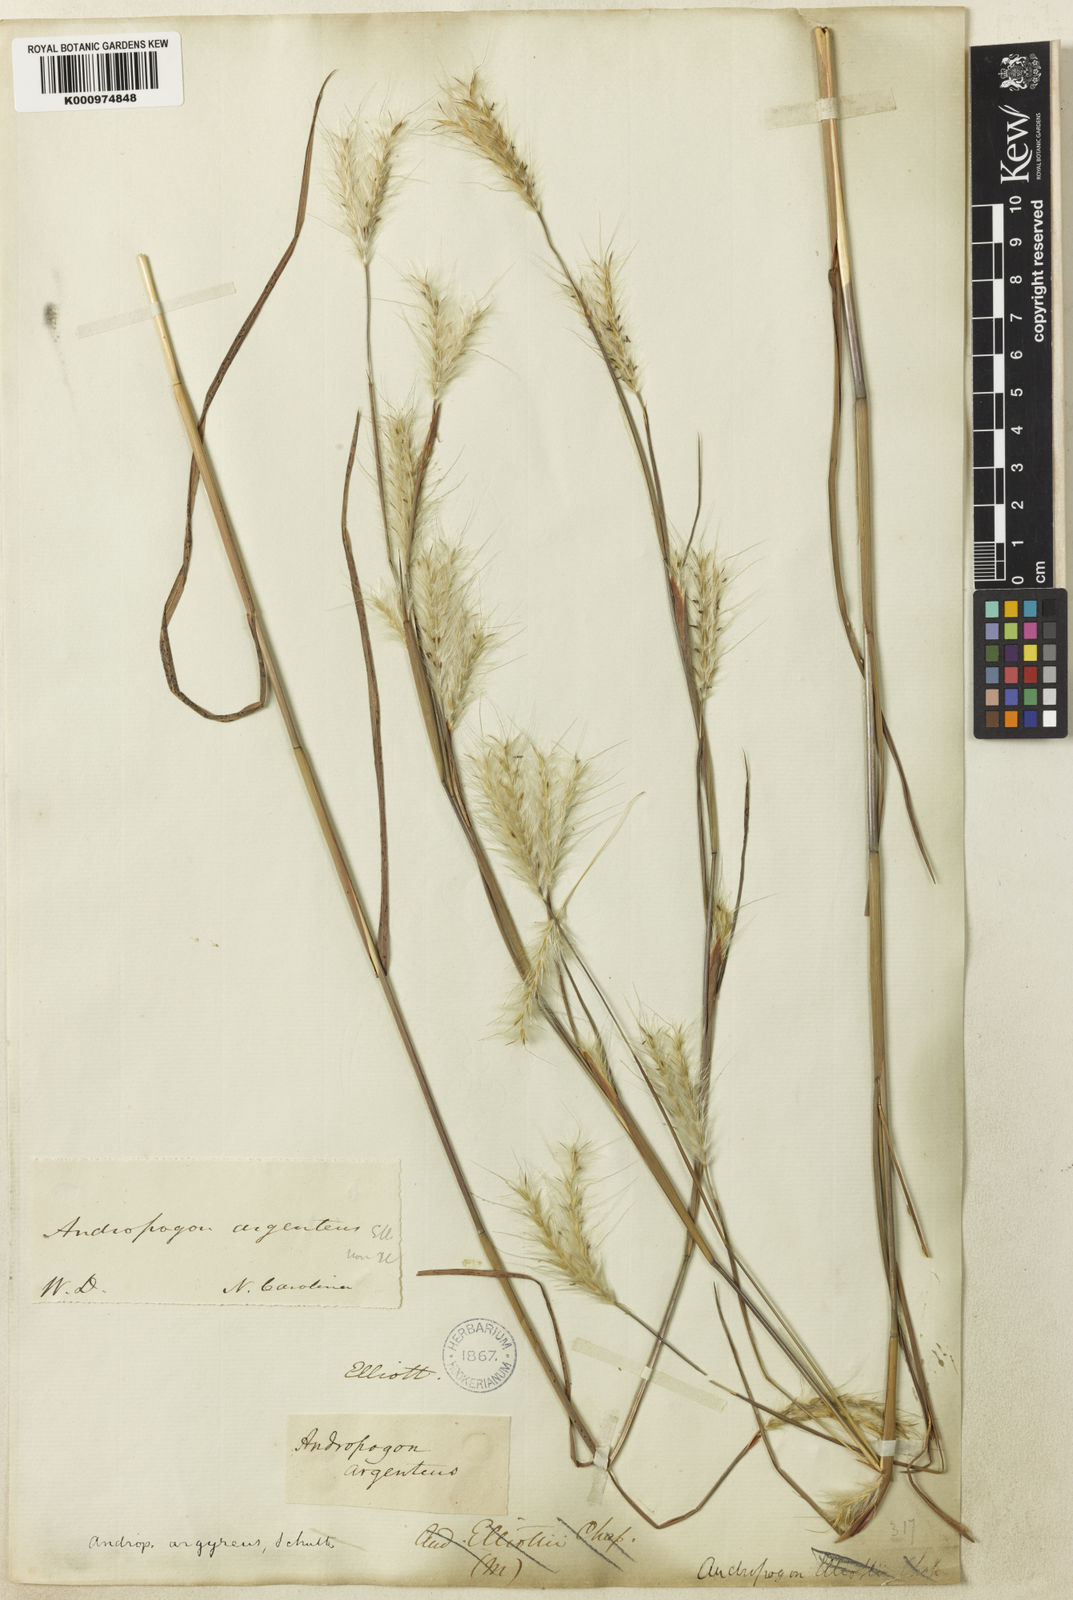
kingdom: Plantae
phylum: Tracheophyta
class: Liliopsida
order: Poales
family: Poaceae
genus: Andropogon
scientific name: Andropogon ternarius
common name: Split bluestem
